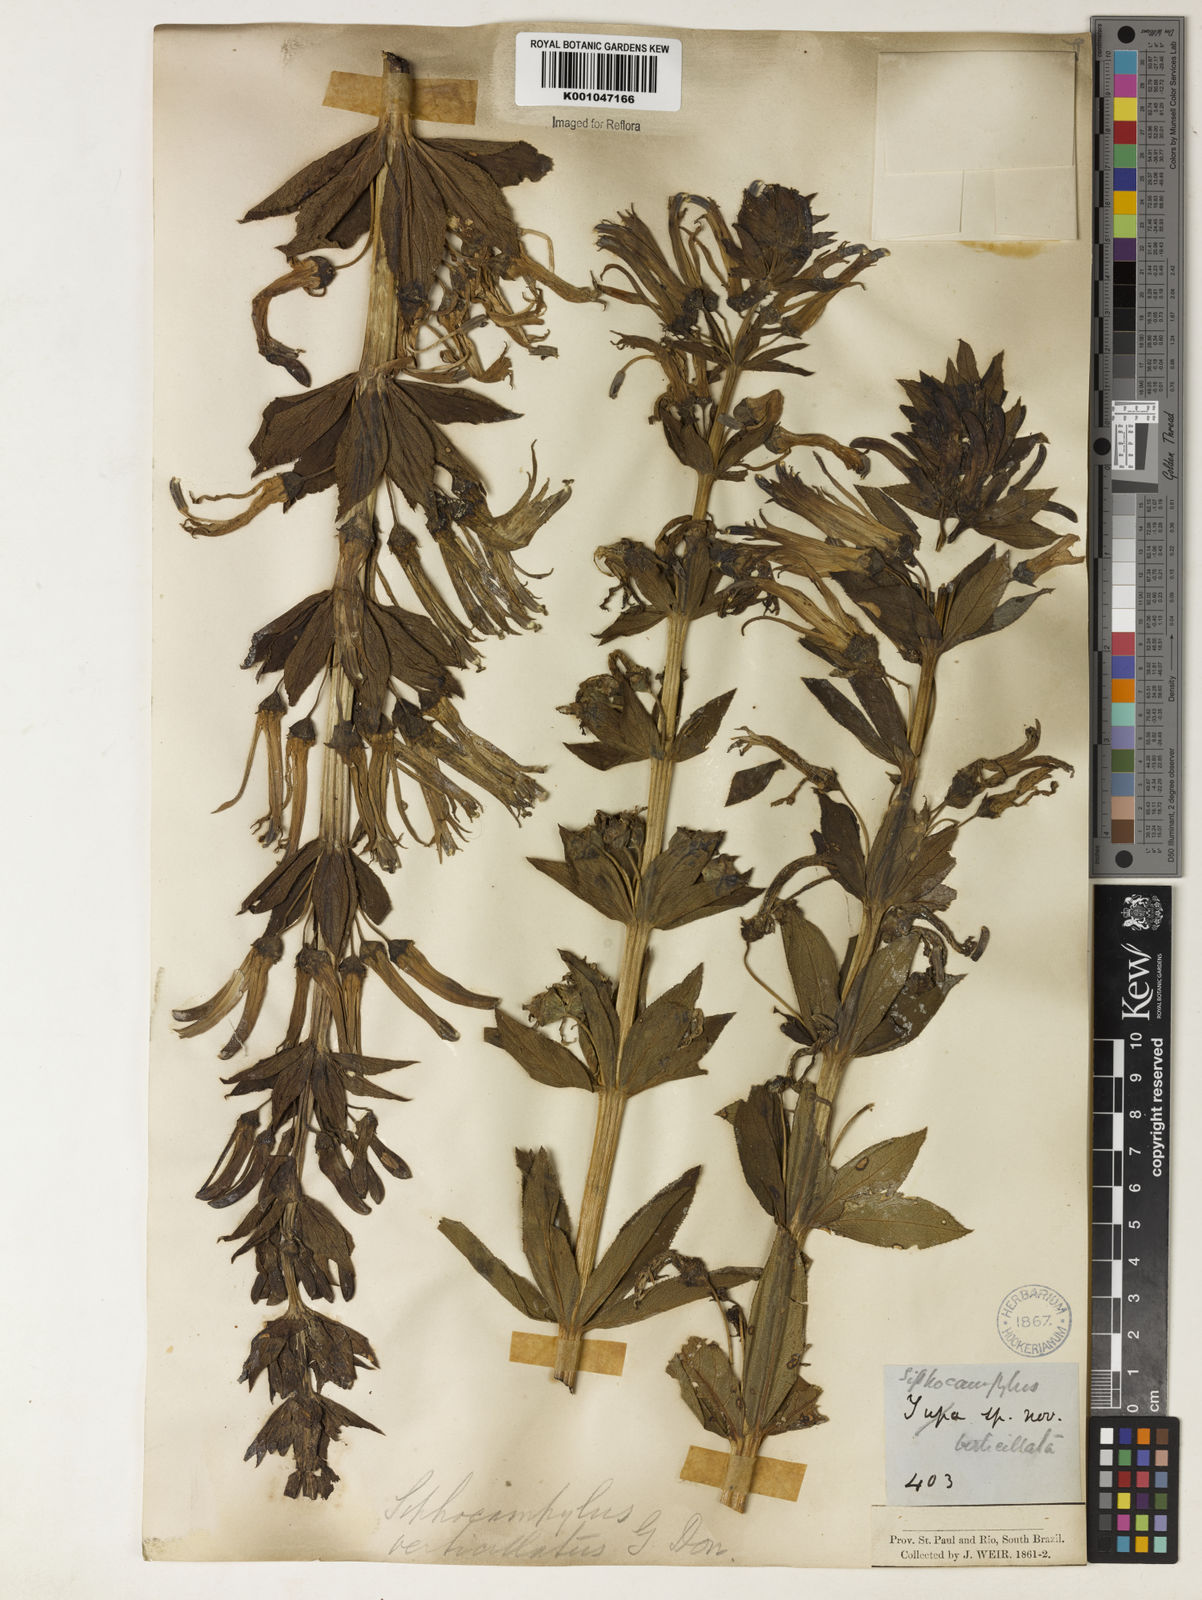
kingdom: Plantae
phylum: Tracheophyta
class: Magnoliopsida
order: Asterales
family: Campanulaceae
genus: Siphocampylus
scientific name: Siphocampylus verticillatus
